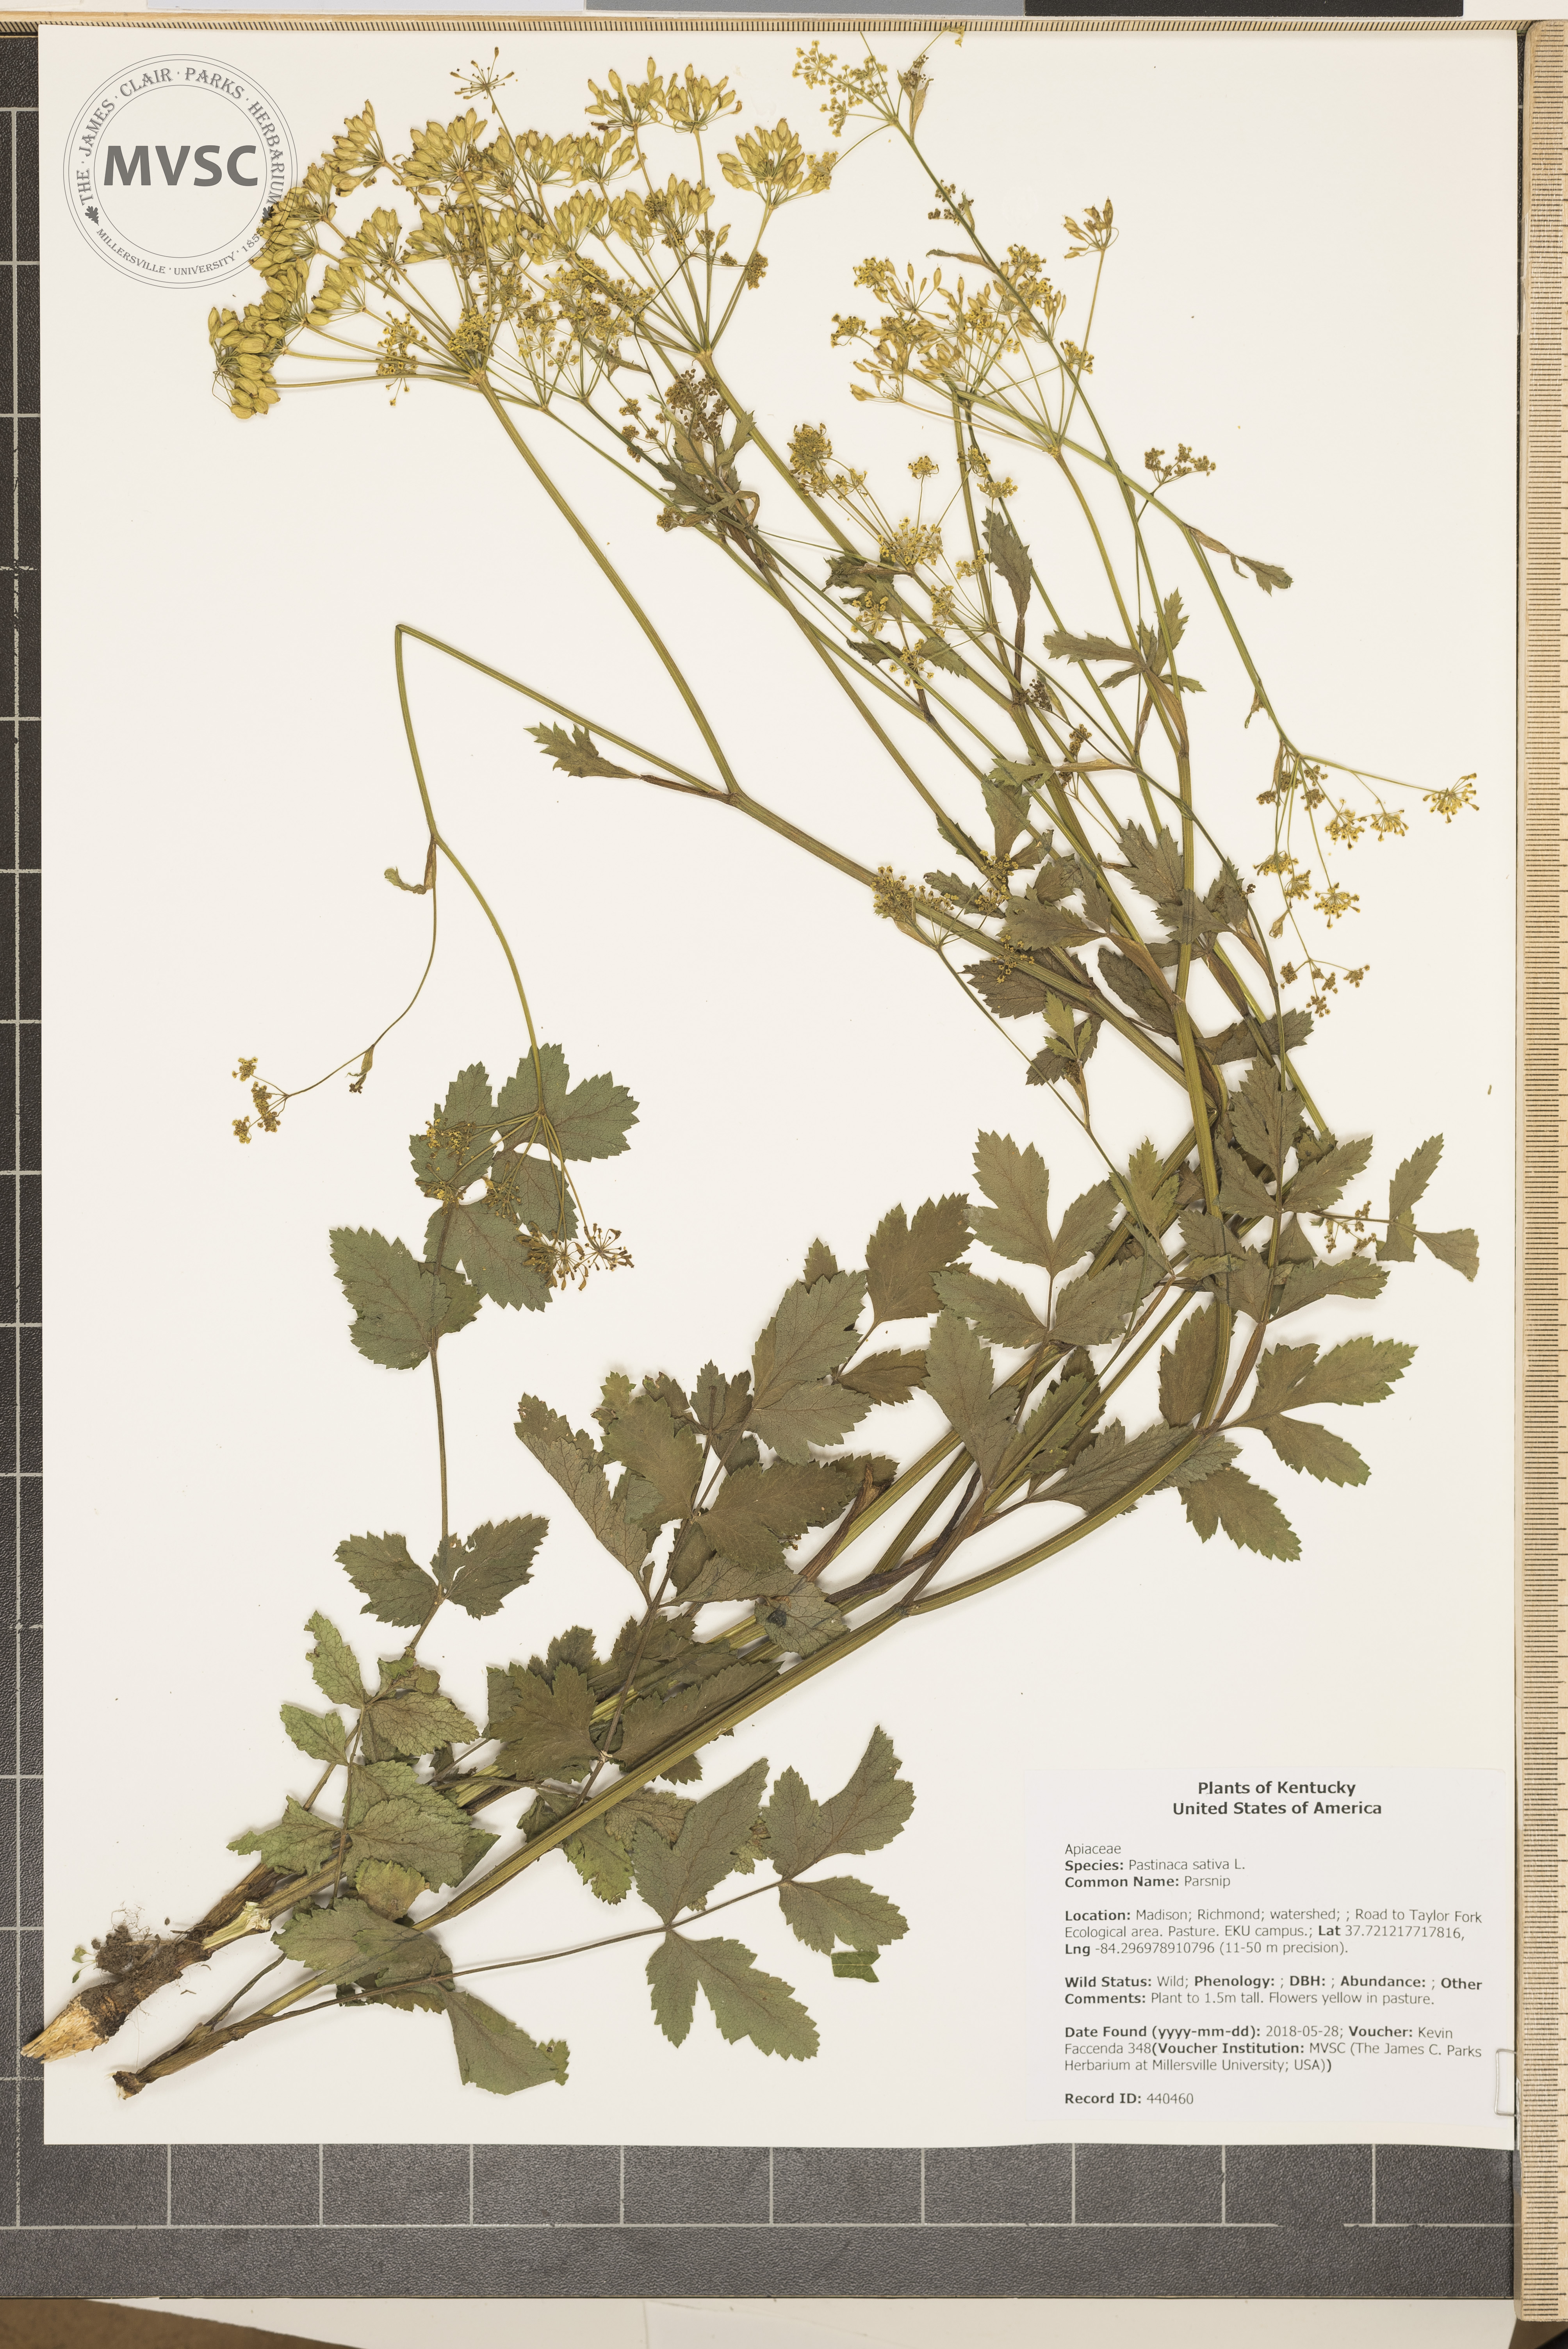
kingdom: Plantae
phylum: Tracheophyta
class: Magnoliopsida
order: Apiales
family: Apiaceae
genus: Pastinaca
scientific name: Pastinaca sativa
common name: Parsnip
